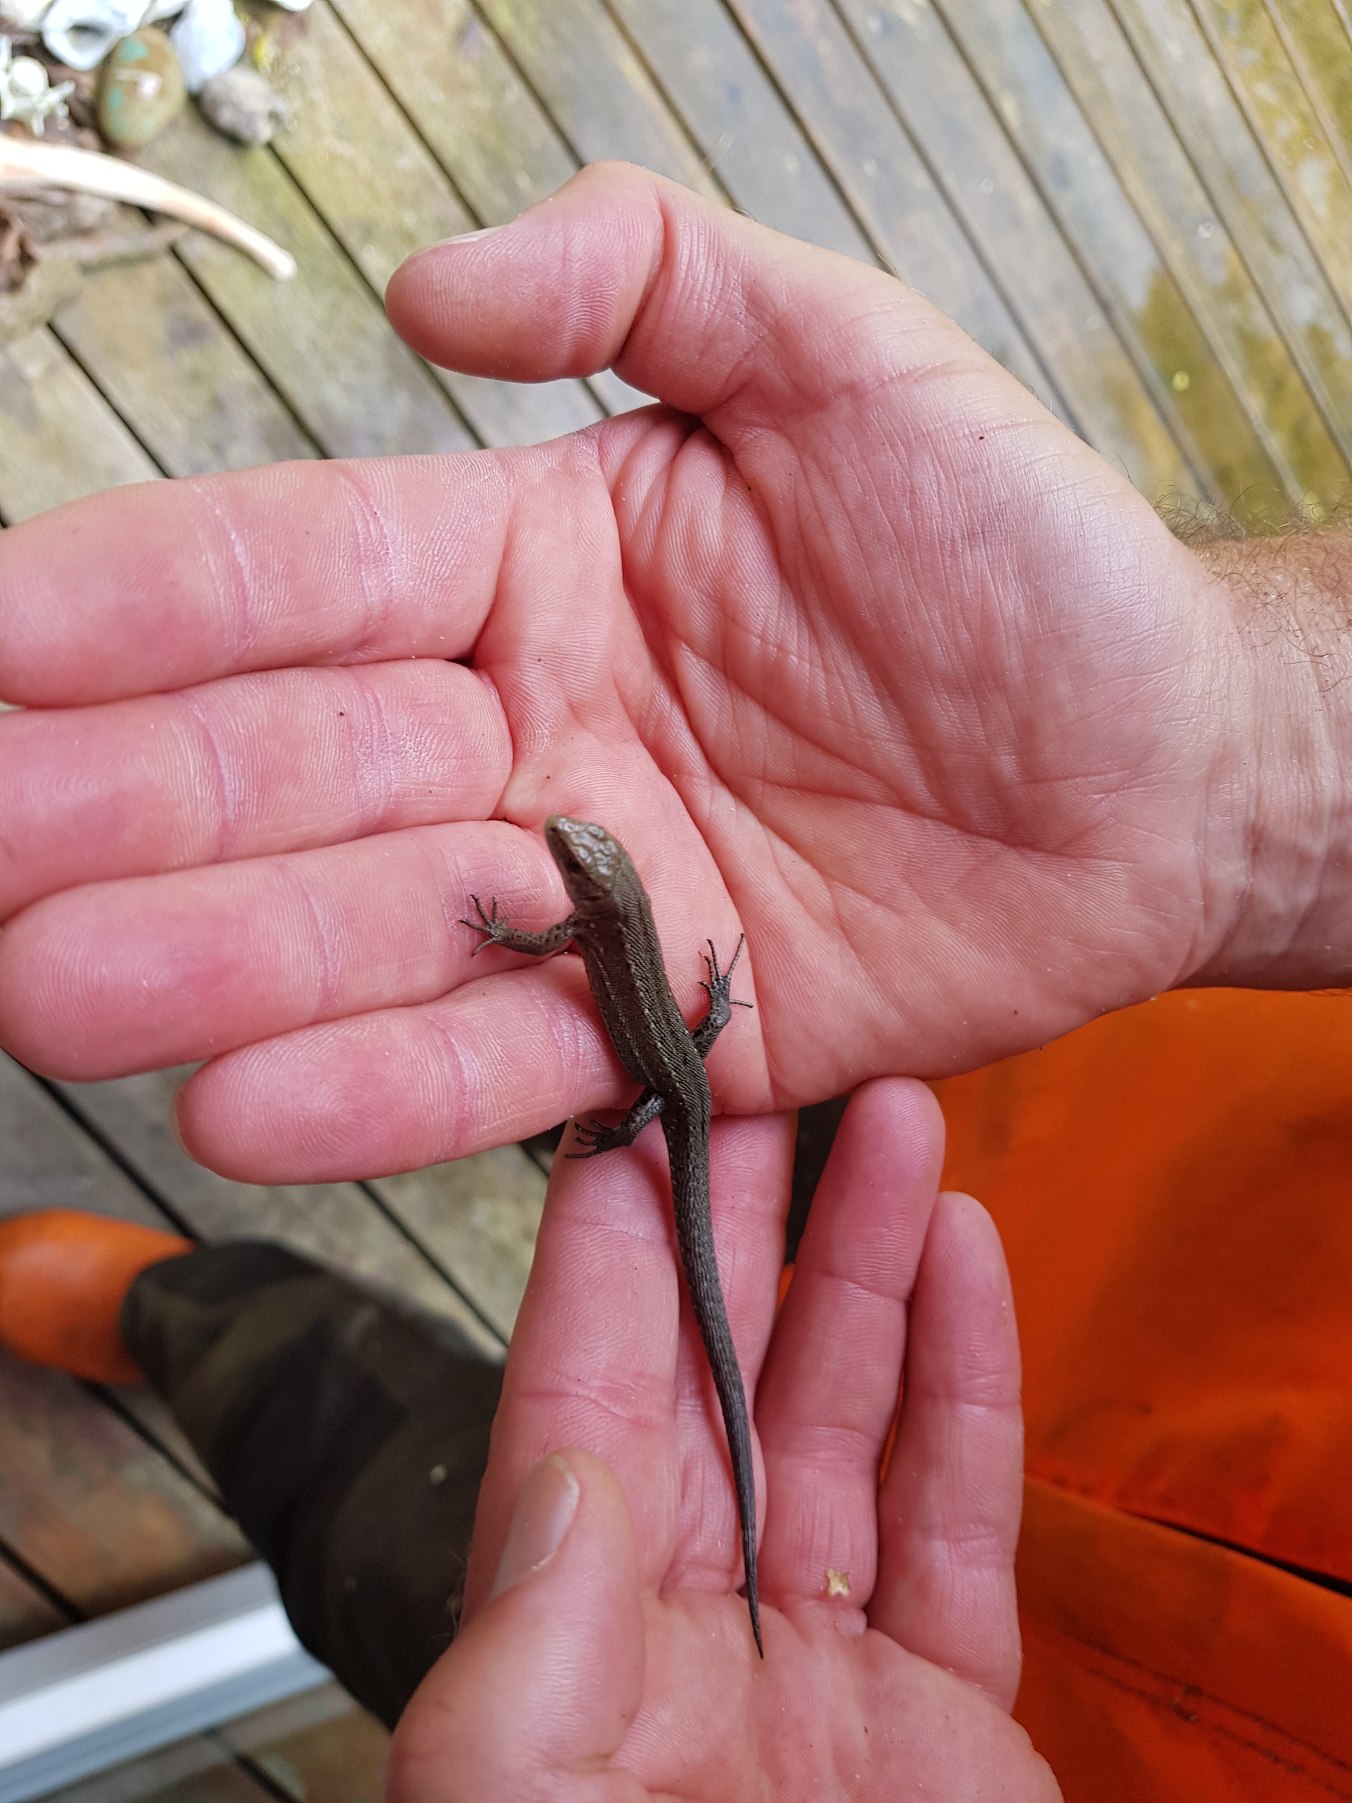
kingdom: Animalia
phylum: Chordata
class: Squamata
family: Lacertidae
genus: Zootoca
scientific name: Zootoca vivipara
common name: Skovfirben
